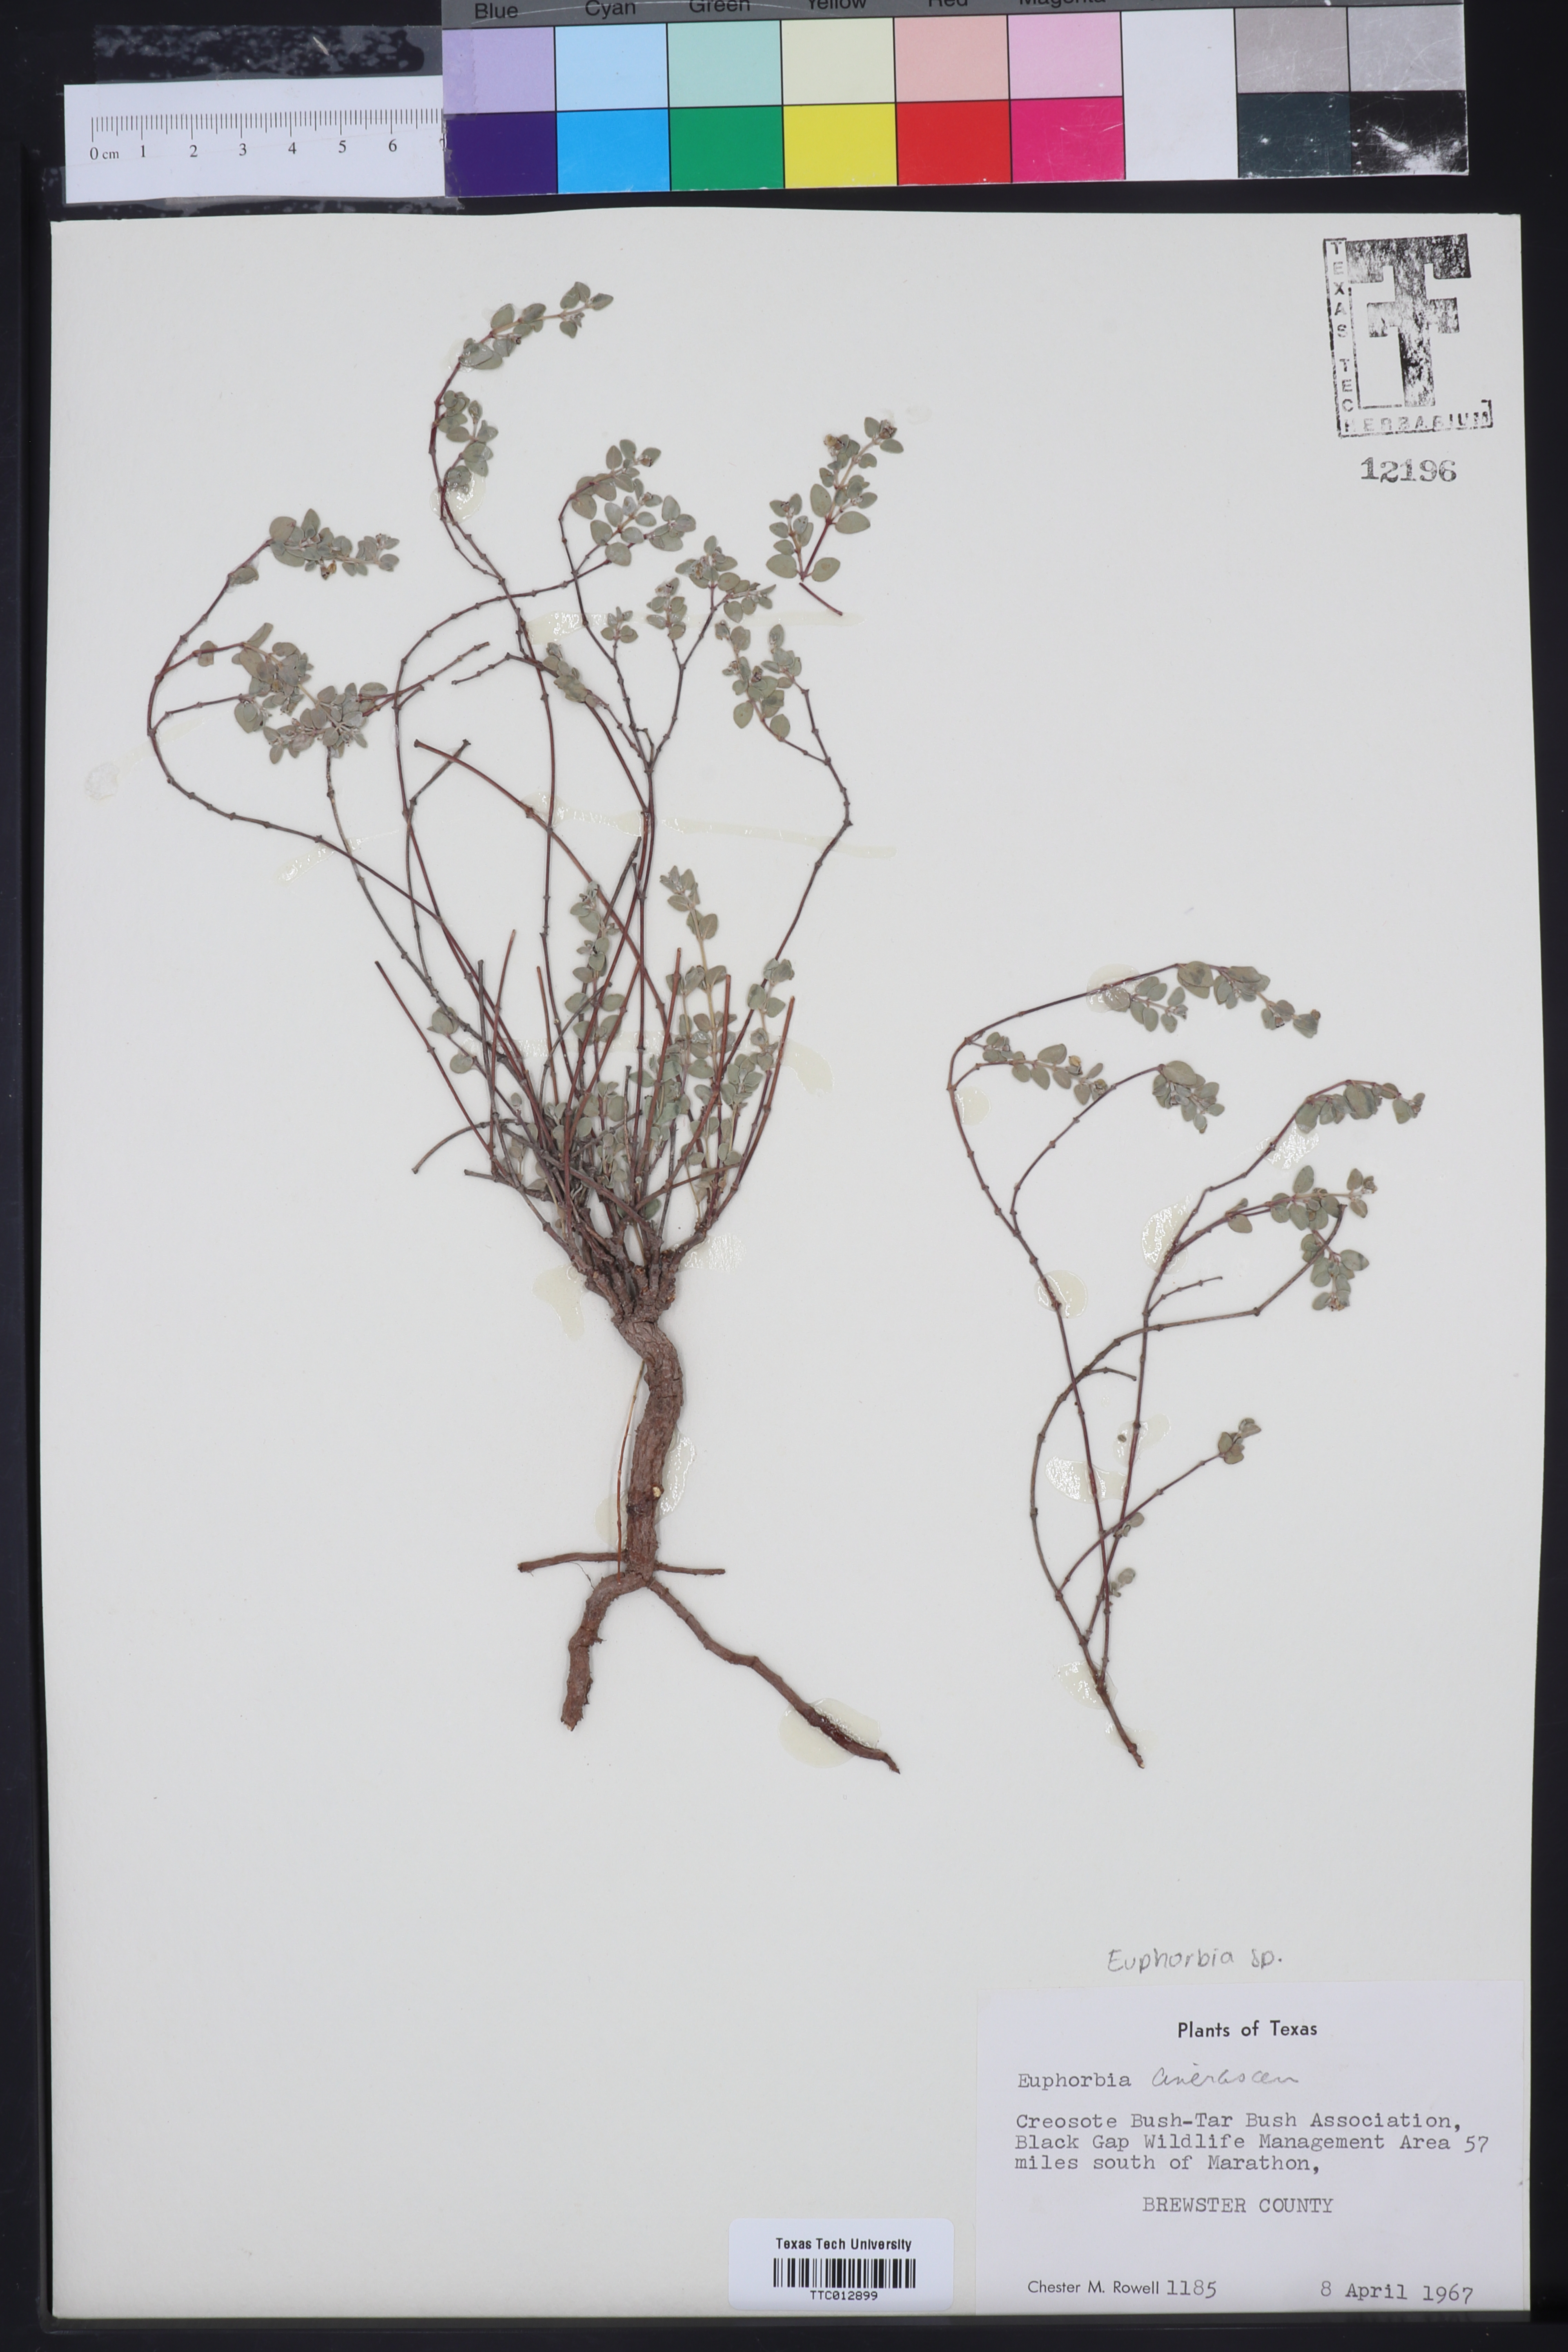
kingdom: Plantae
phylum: Tracheophyta
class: Magnoliopsida
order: Malpighiales
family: Euphorbiaceae
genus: Euphorbia
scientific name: Euphorbia
